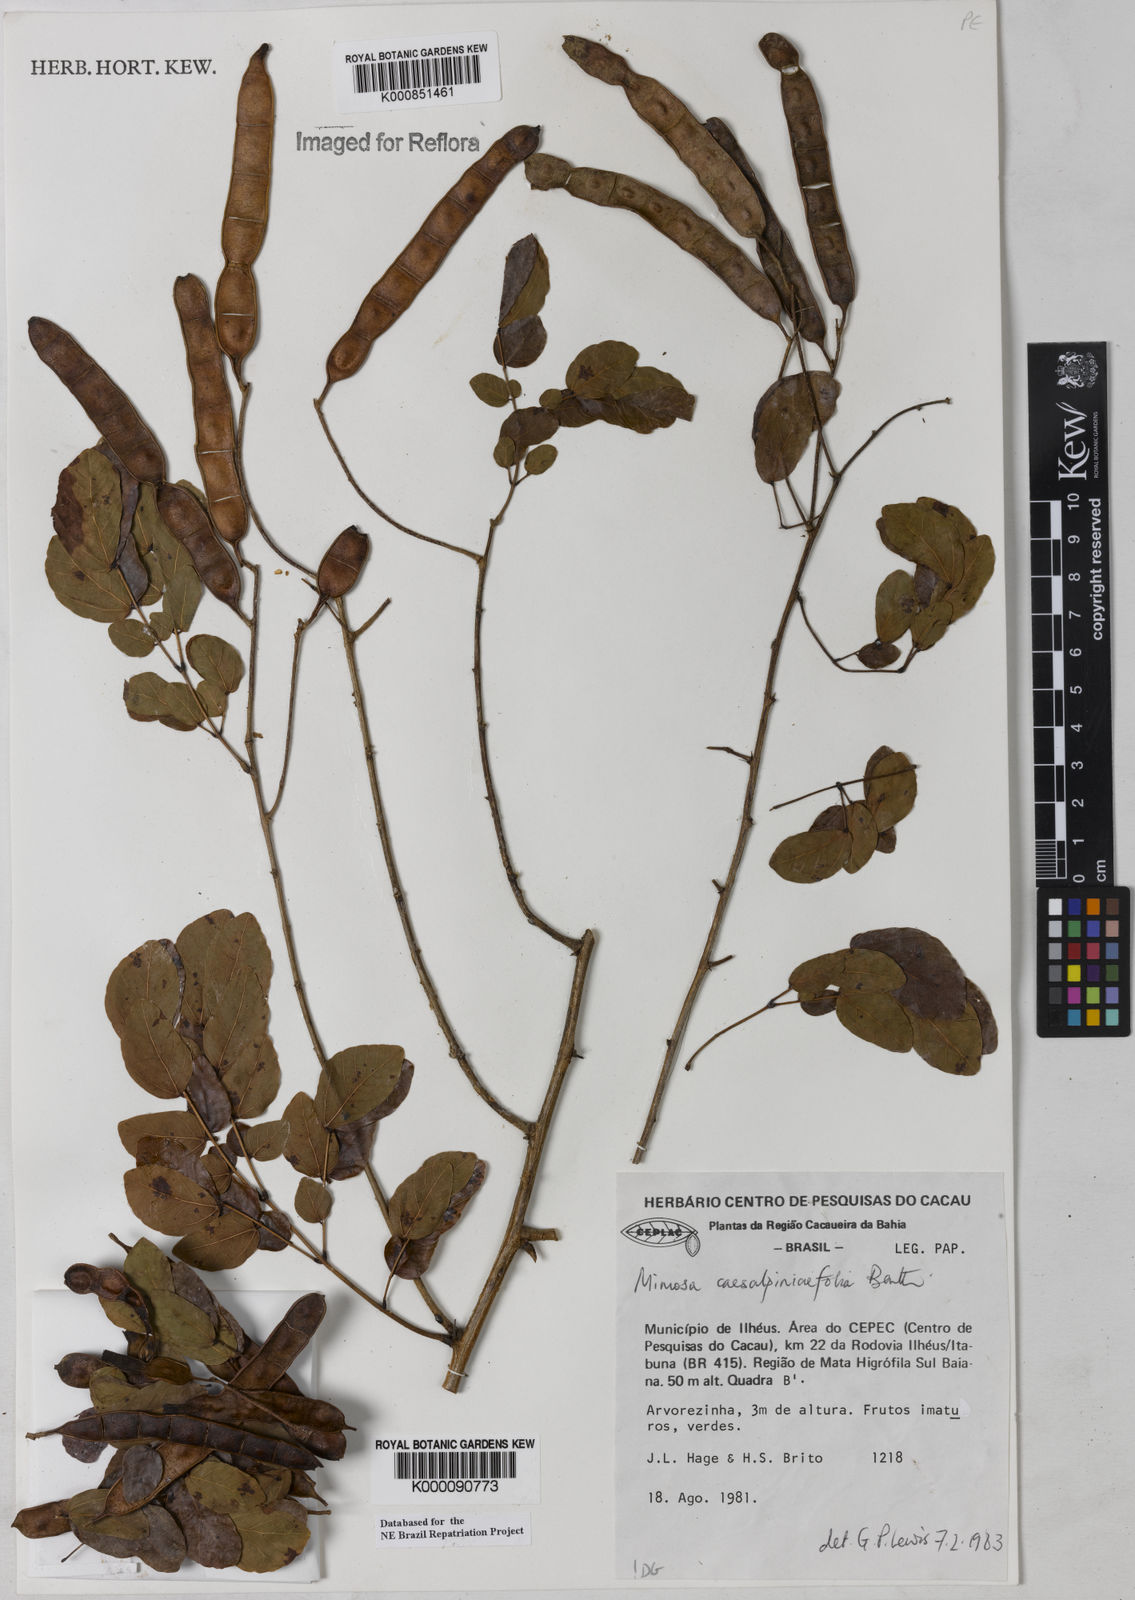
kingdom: Plantae
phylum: Tracheophyta
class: Magnoliopsida
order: Fabales
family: Fabaceae
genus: Senegalia
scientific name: Senegalia polyphylla
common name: White-tamarind
